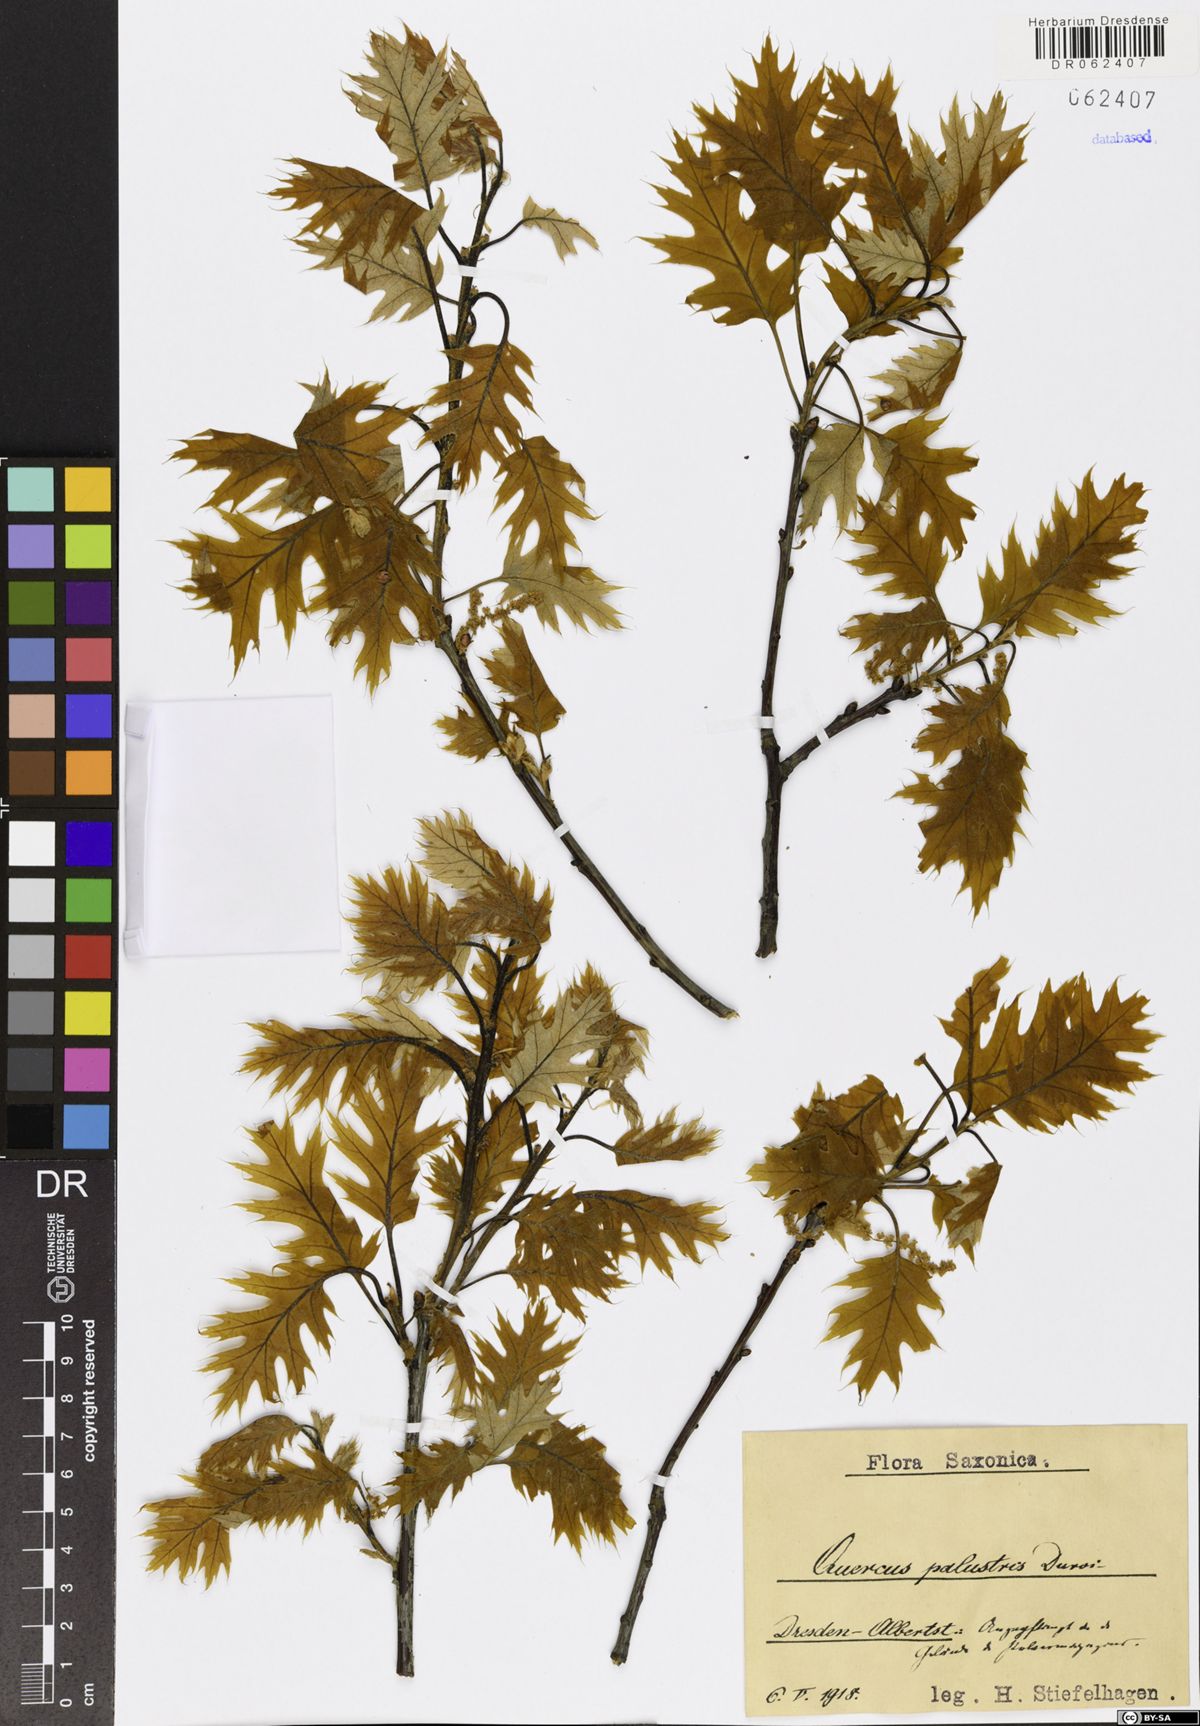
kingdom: Plantae
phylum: Tracheophyta
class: Magnoliopsida
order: Fagales
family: Fagaceae
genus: Quercus
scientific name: Quercus palustris
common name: Pin oak
